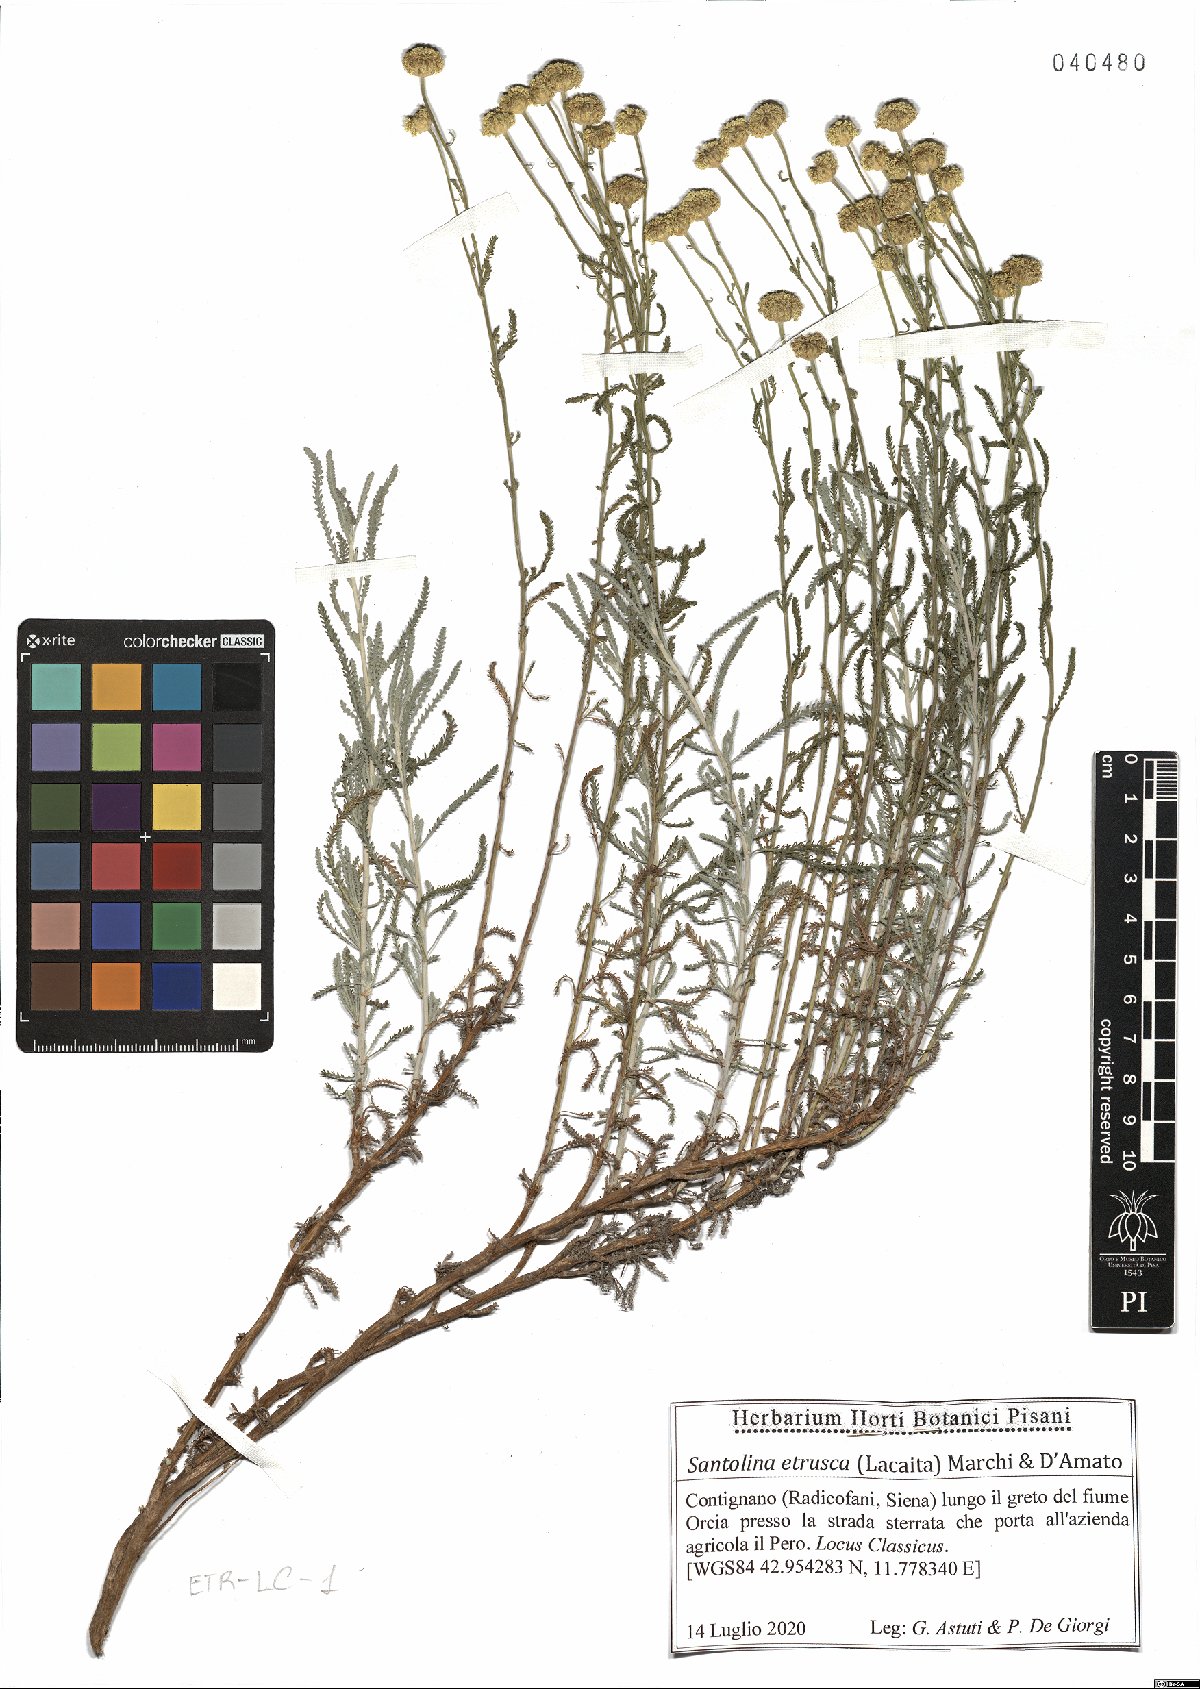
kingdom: Plantae
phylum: Tracheophyta
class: Magnoliopsida
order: Asterales
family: Asteraceae
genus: Santolina
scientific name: Santolina etrusca
